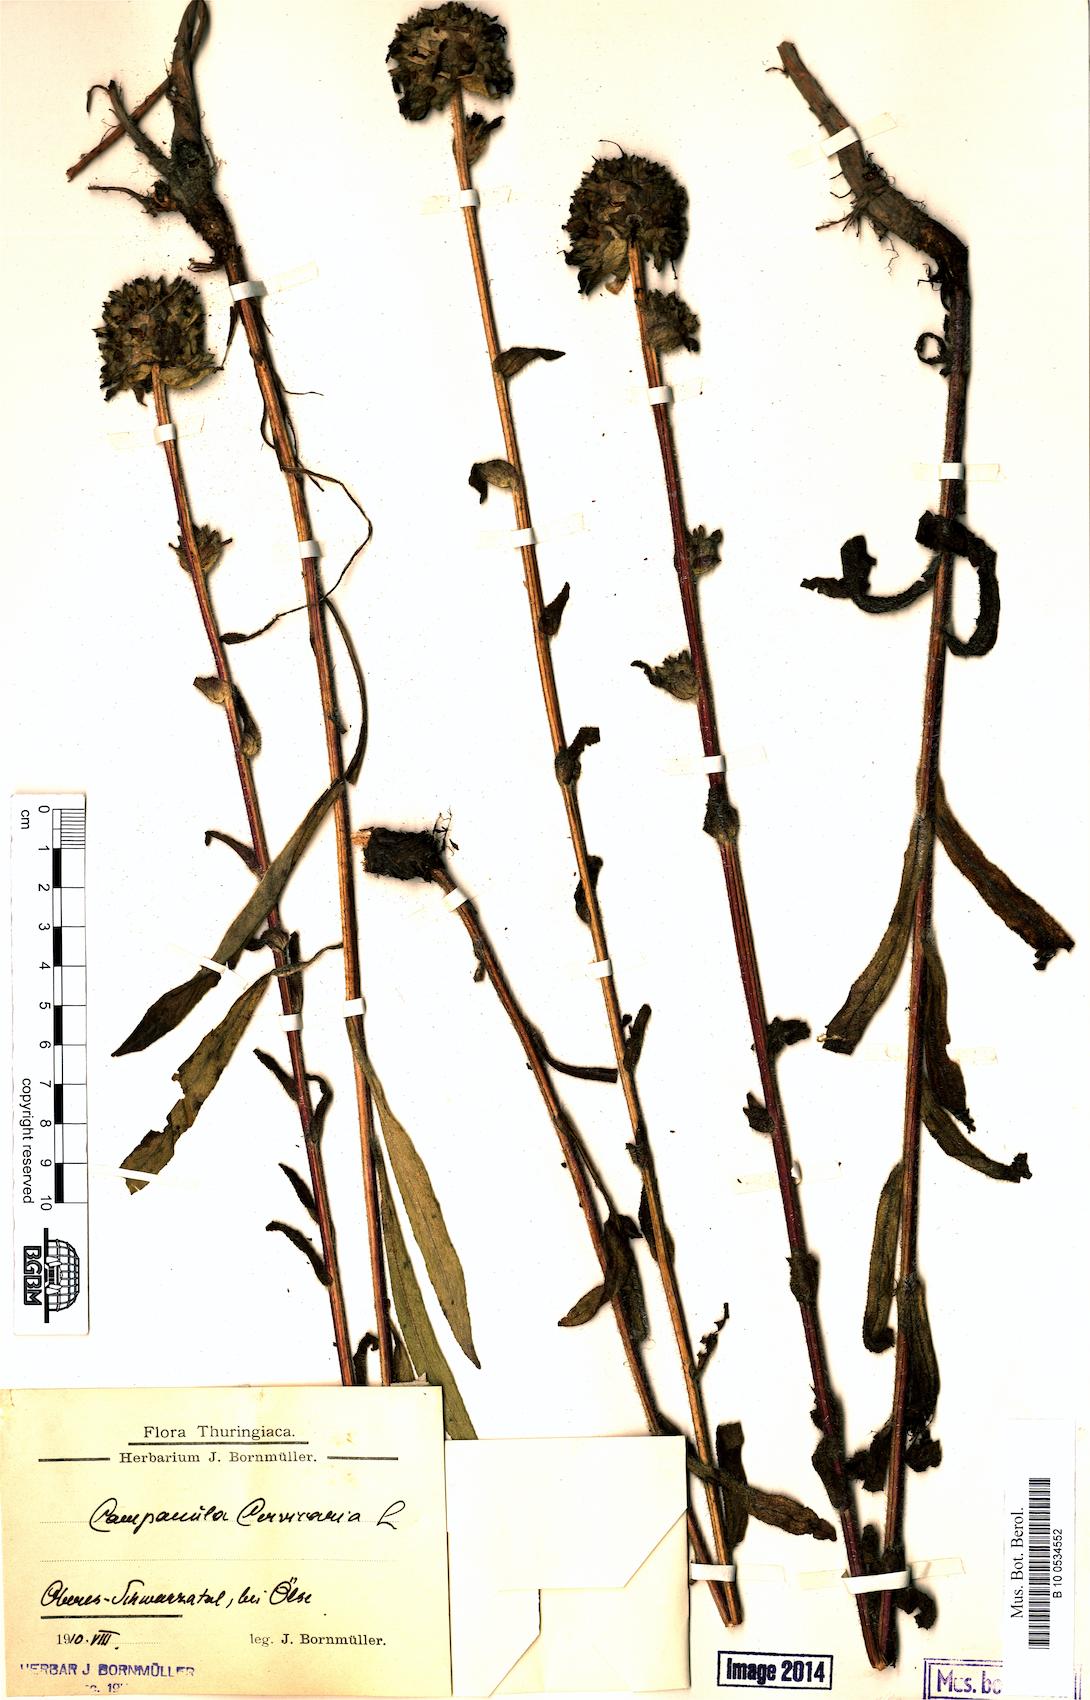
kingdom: Plantae
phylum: Tracheophyta
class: Magnoliopsida
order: Asterales
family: Campanulaceae
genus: Campanula
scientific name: Campanula cervicaria
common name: Bristly bellflower
